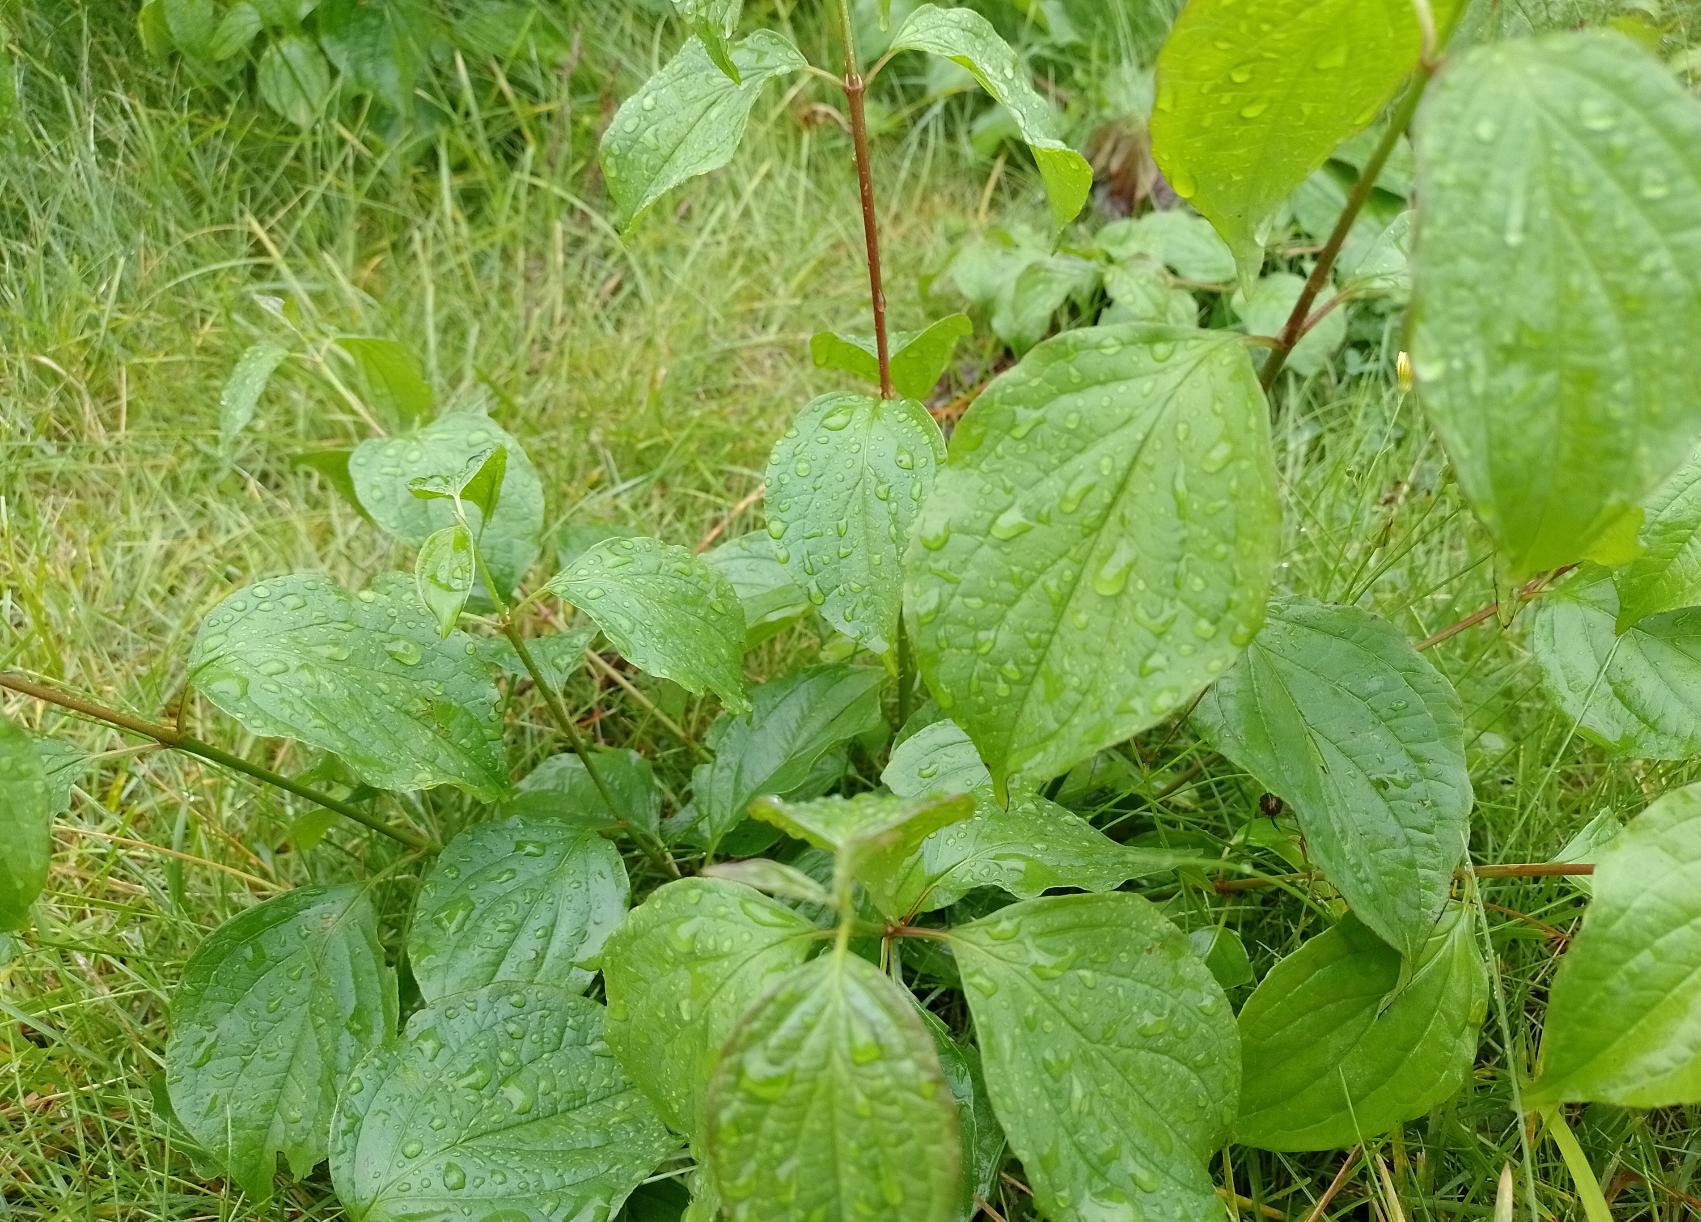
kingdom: Plantae
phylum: Tracheophyta
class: Magnoliopsida
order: Cornales
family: Cornaceae
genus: Cornus
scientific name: Cornus sanguinea
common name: Rød kornel
